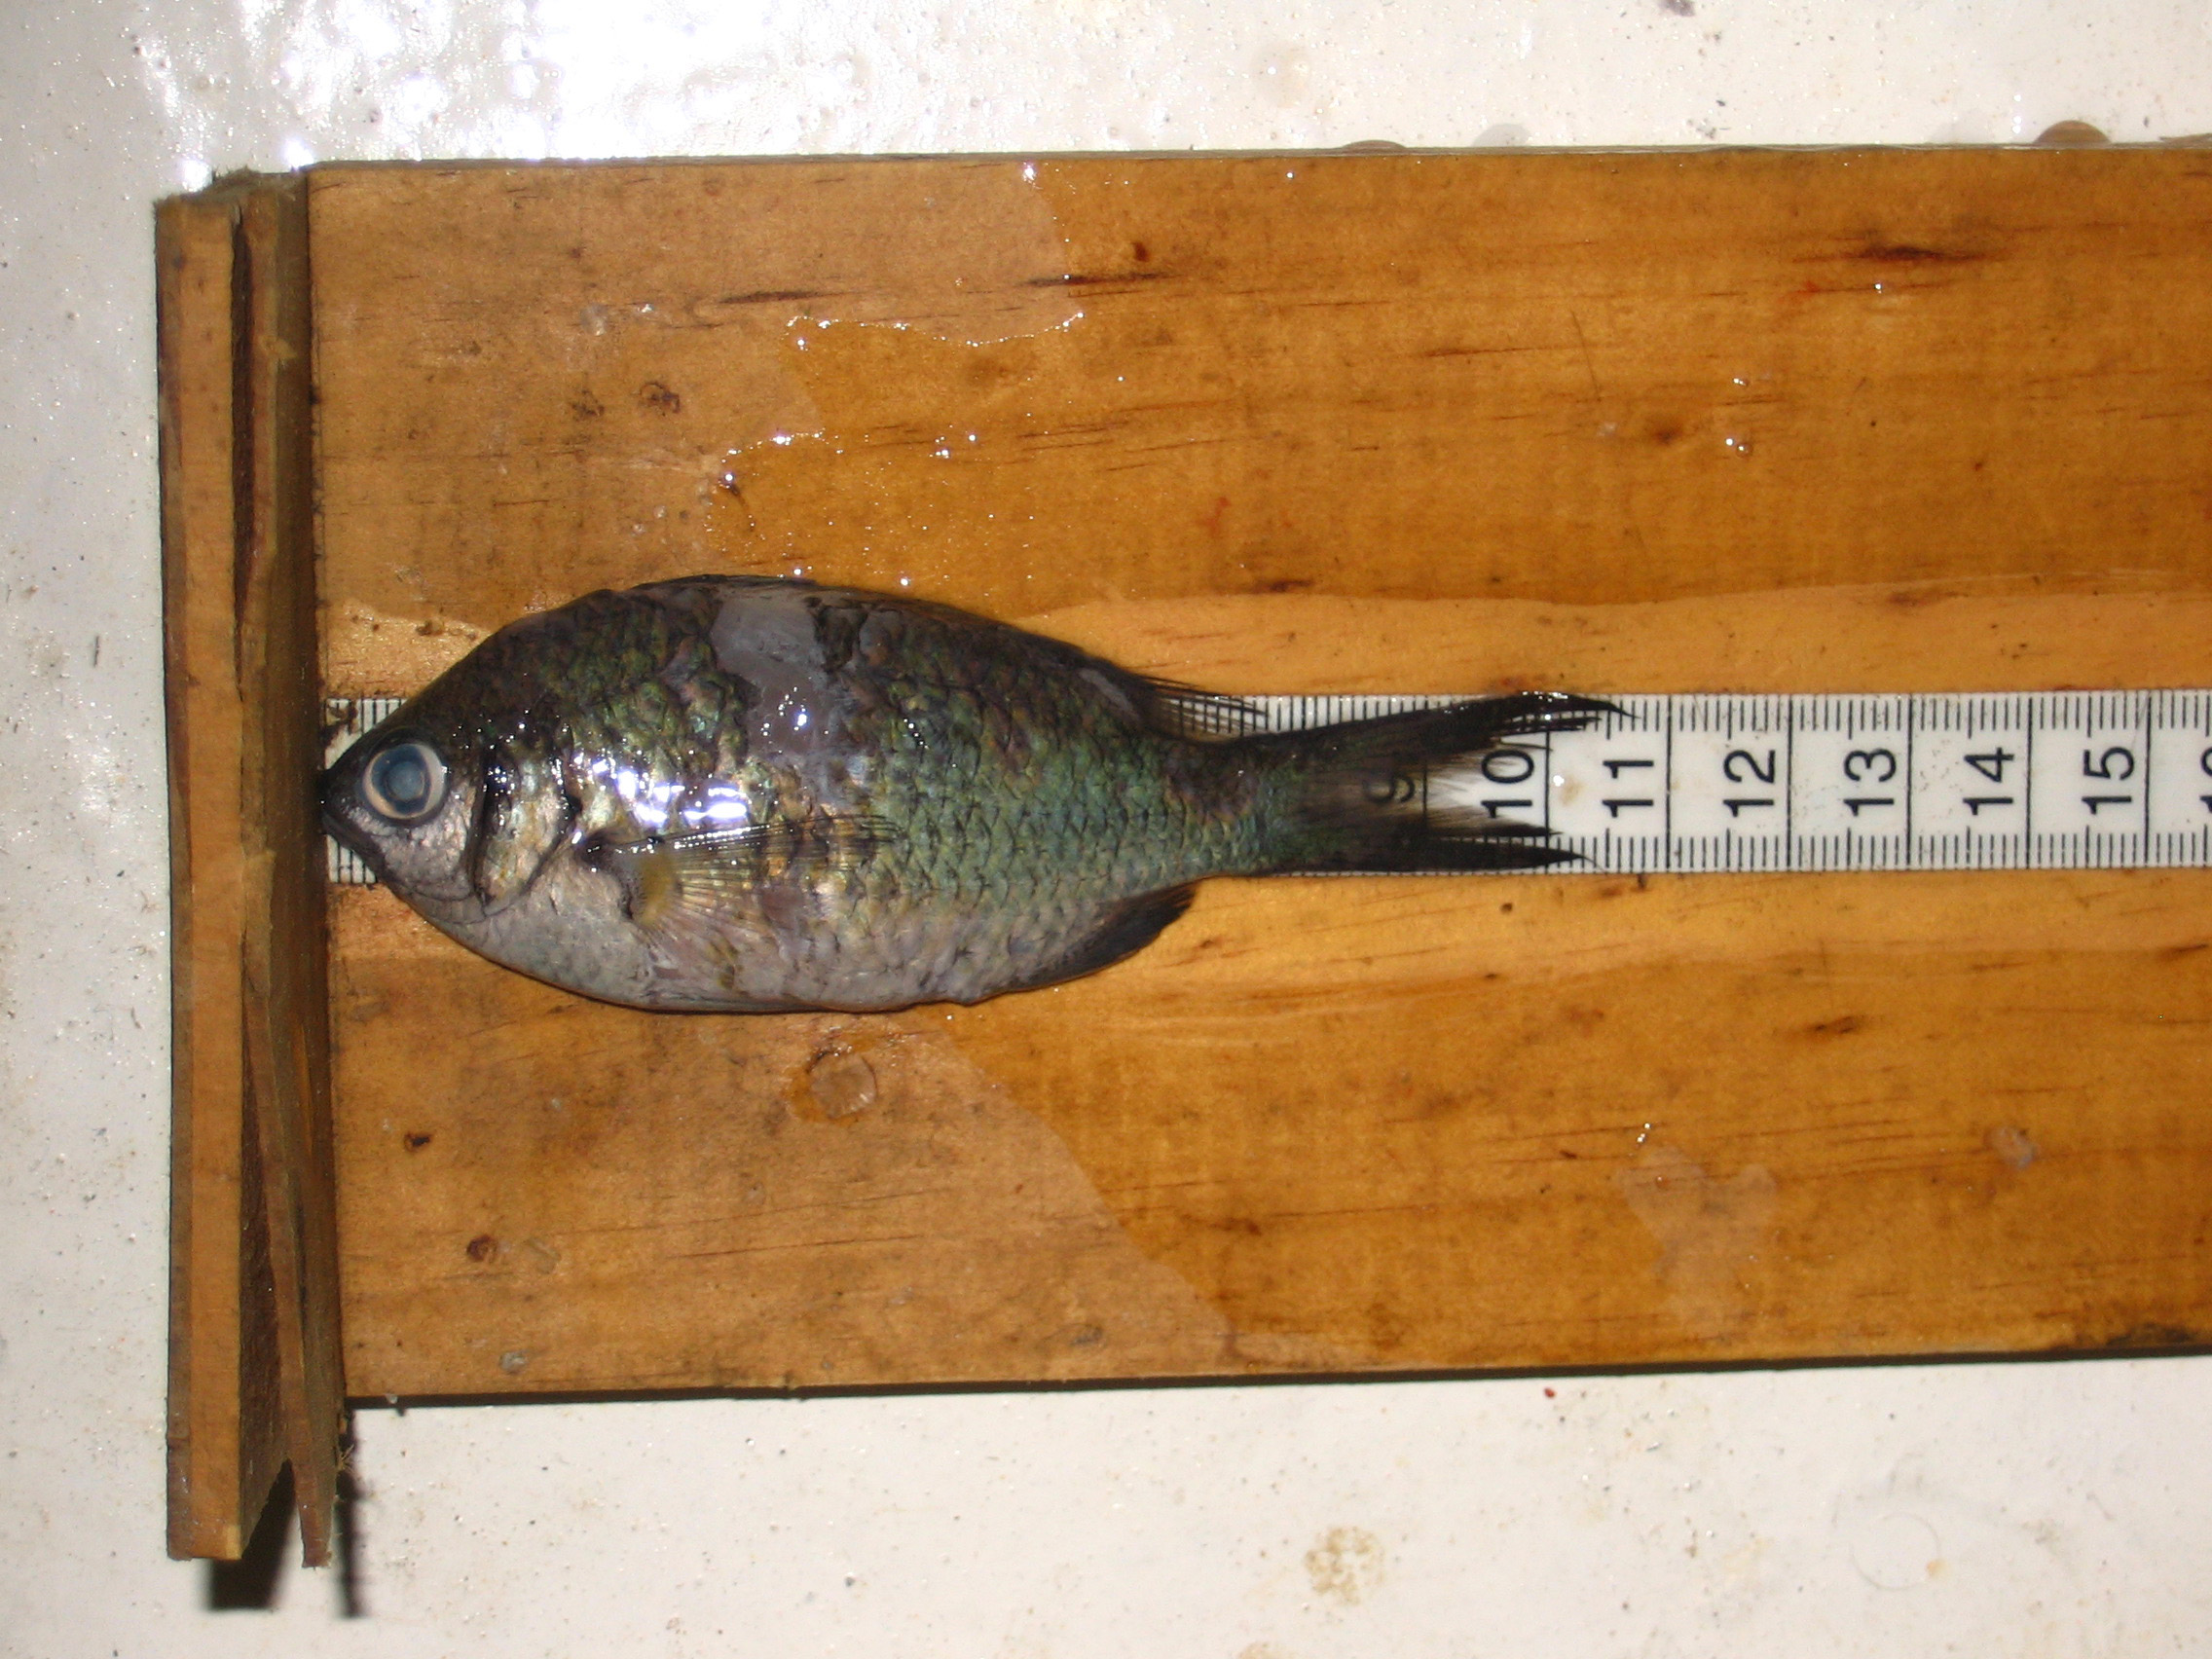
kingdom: Animalia
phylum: Chordata
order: Perciformes
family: Pomacentridae
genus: Chromis
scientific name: Chromis opercularis
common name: Doublebar chromis
